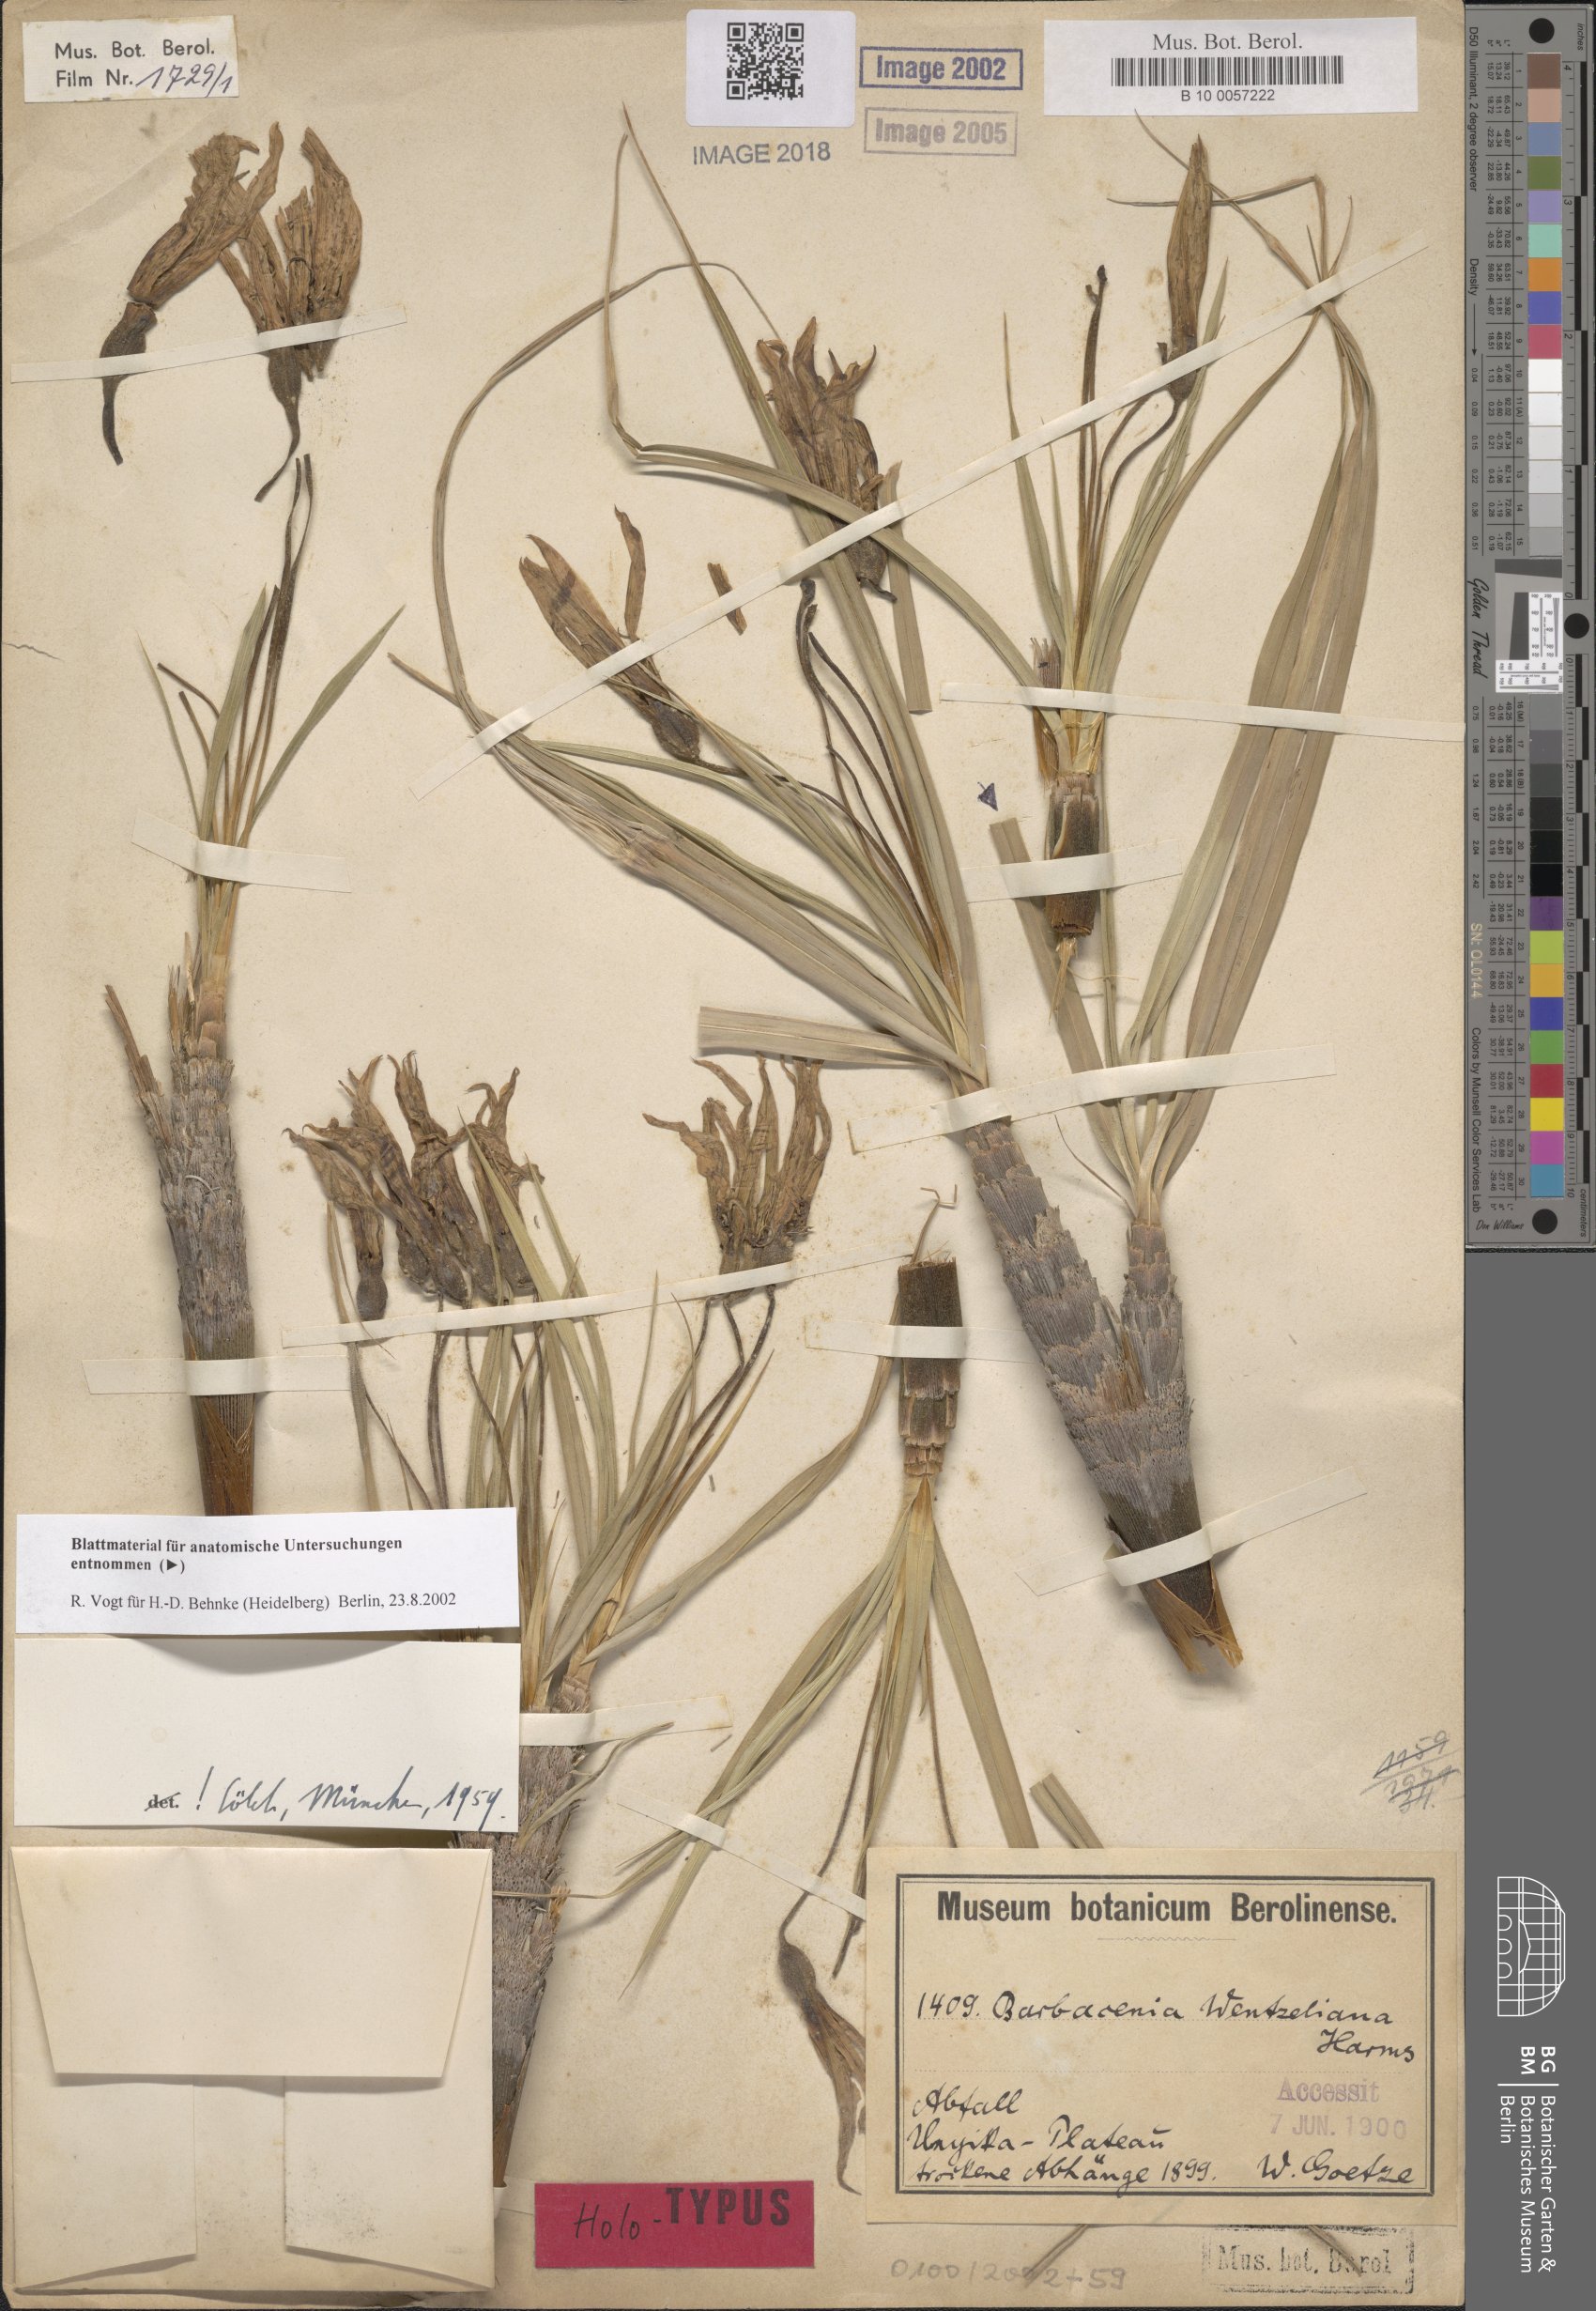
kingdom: Plantae
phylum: Tracheophyta
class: Liliopsida
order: Pandanales
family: Velloziaceae
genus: Xerophyta
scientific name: Xerophyta pauciramosa
